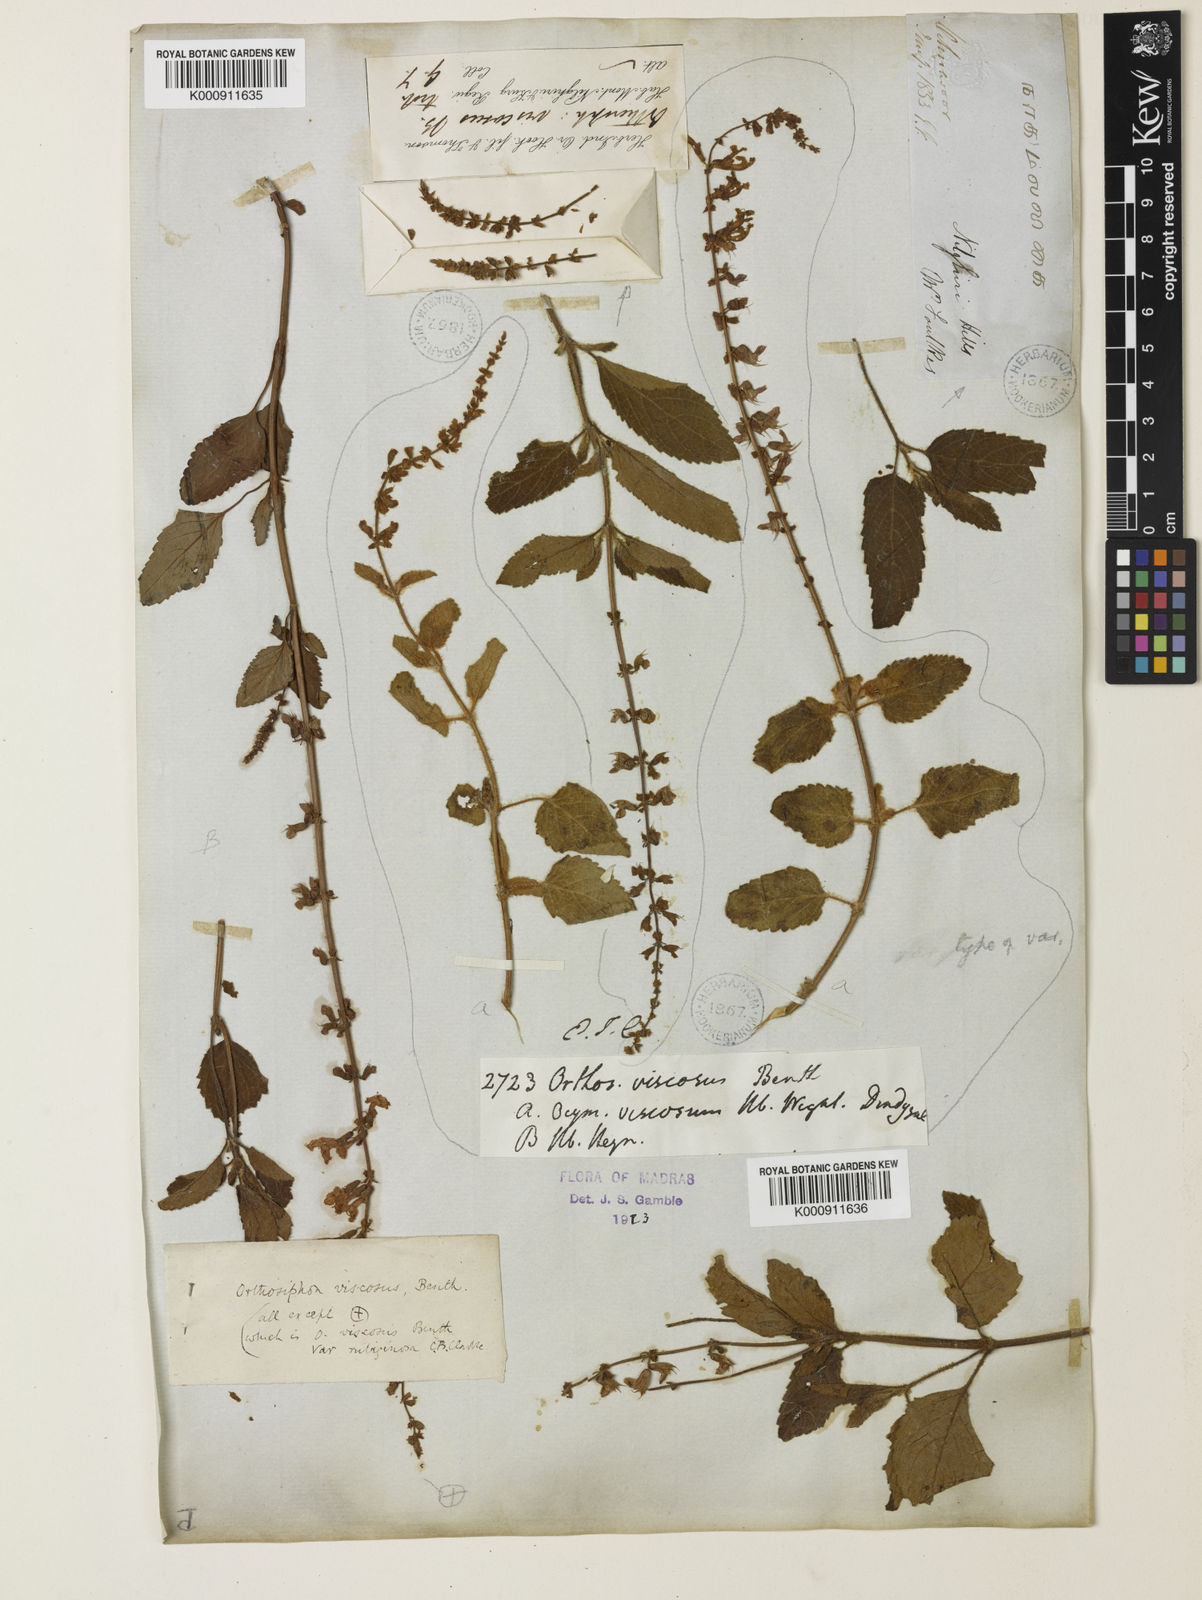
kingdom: Plantae
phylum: Tracheophyta
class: Magnoliopsida
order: Lamiales
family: Lamiaceae
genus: Orthosiphon
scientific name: Orthosiphon thymiflorus
